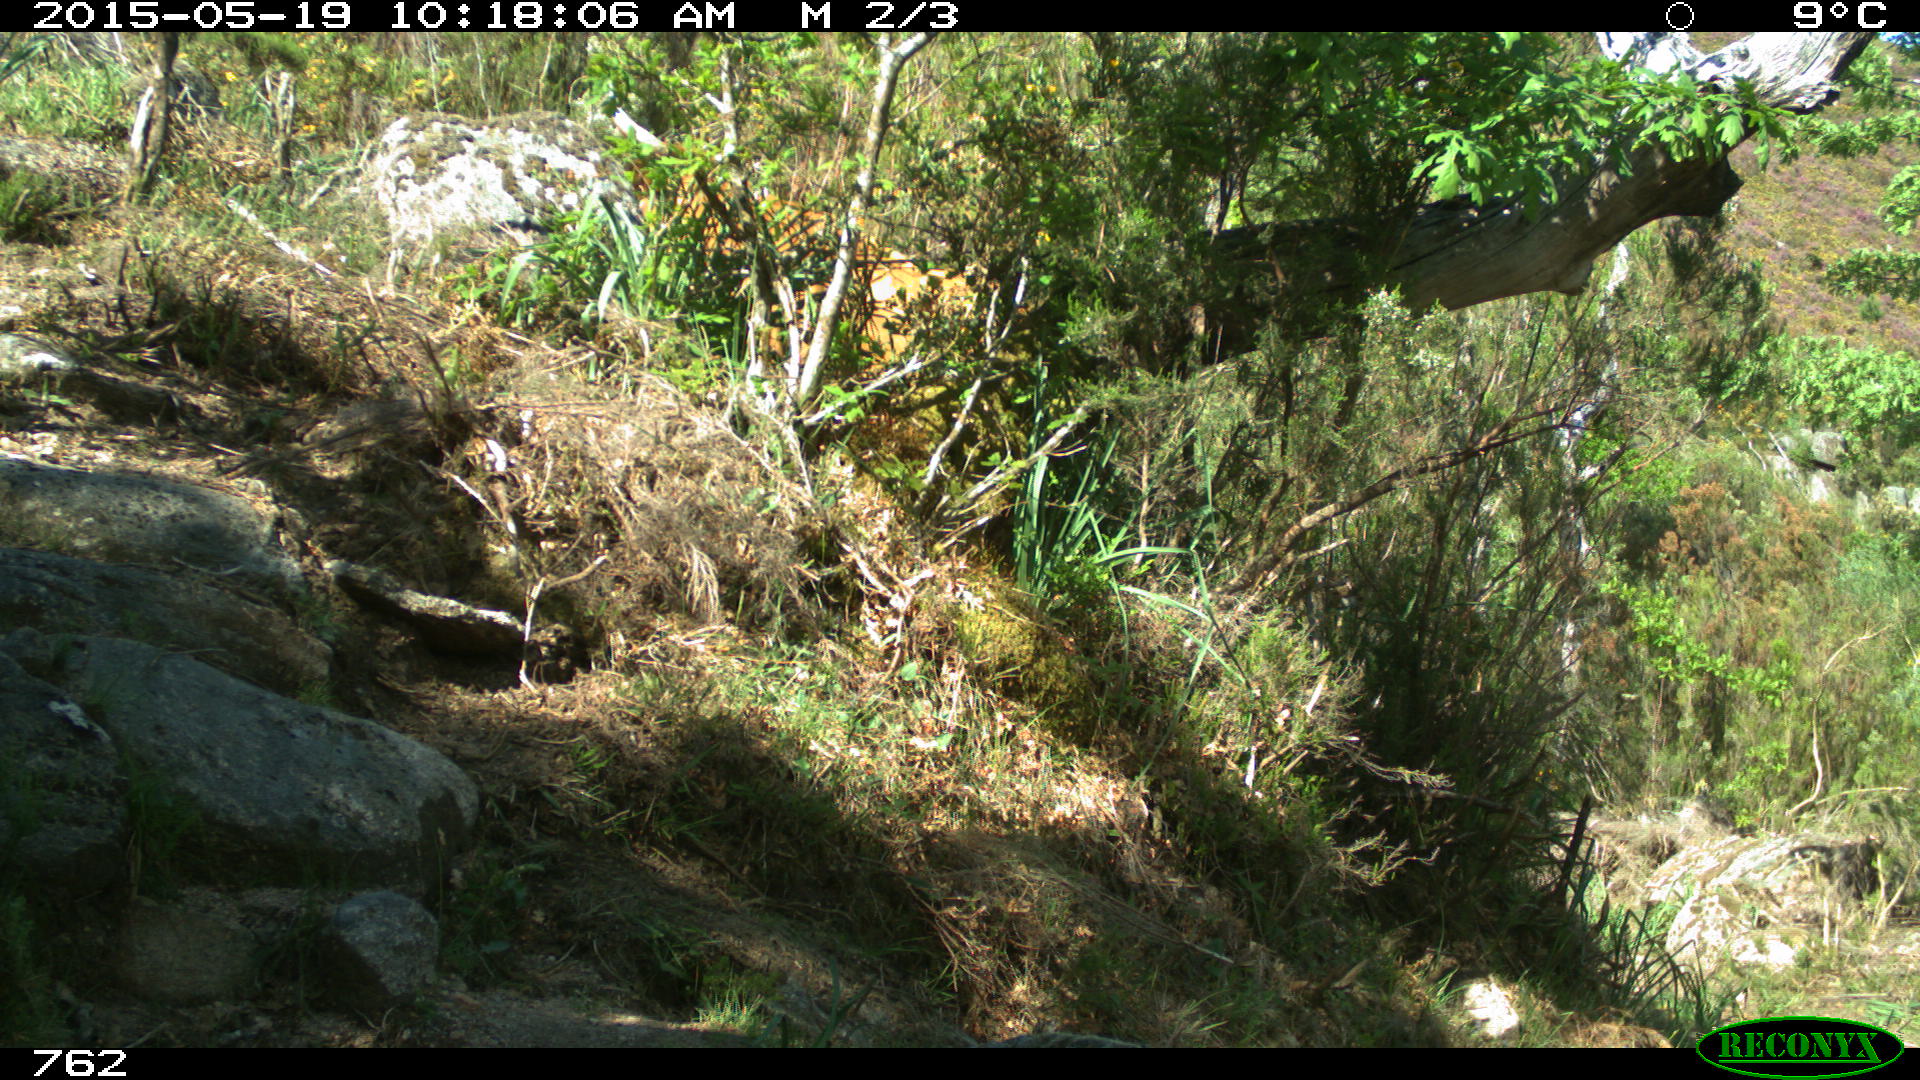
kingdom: Animalia
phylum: Chordata
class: Mammalia
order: Artiodactyla
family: Bovidae
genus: Bos
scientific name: Bos taurus
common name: Domesticated cattle
